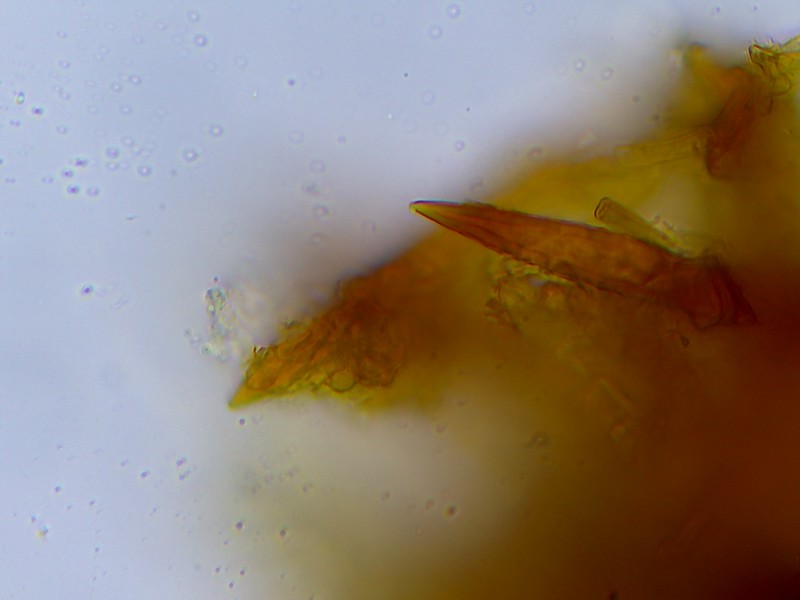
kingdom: Fungi
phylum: Basidiomycota
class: Agaricomycetes
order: Hymenochaetales
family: Hymenochaetaceae
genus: Fuscoporia
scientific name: Fuscoporia ferruginosa
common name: rustbrun ildporesvamp
